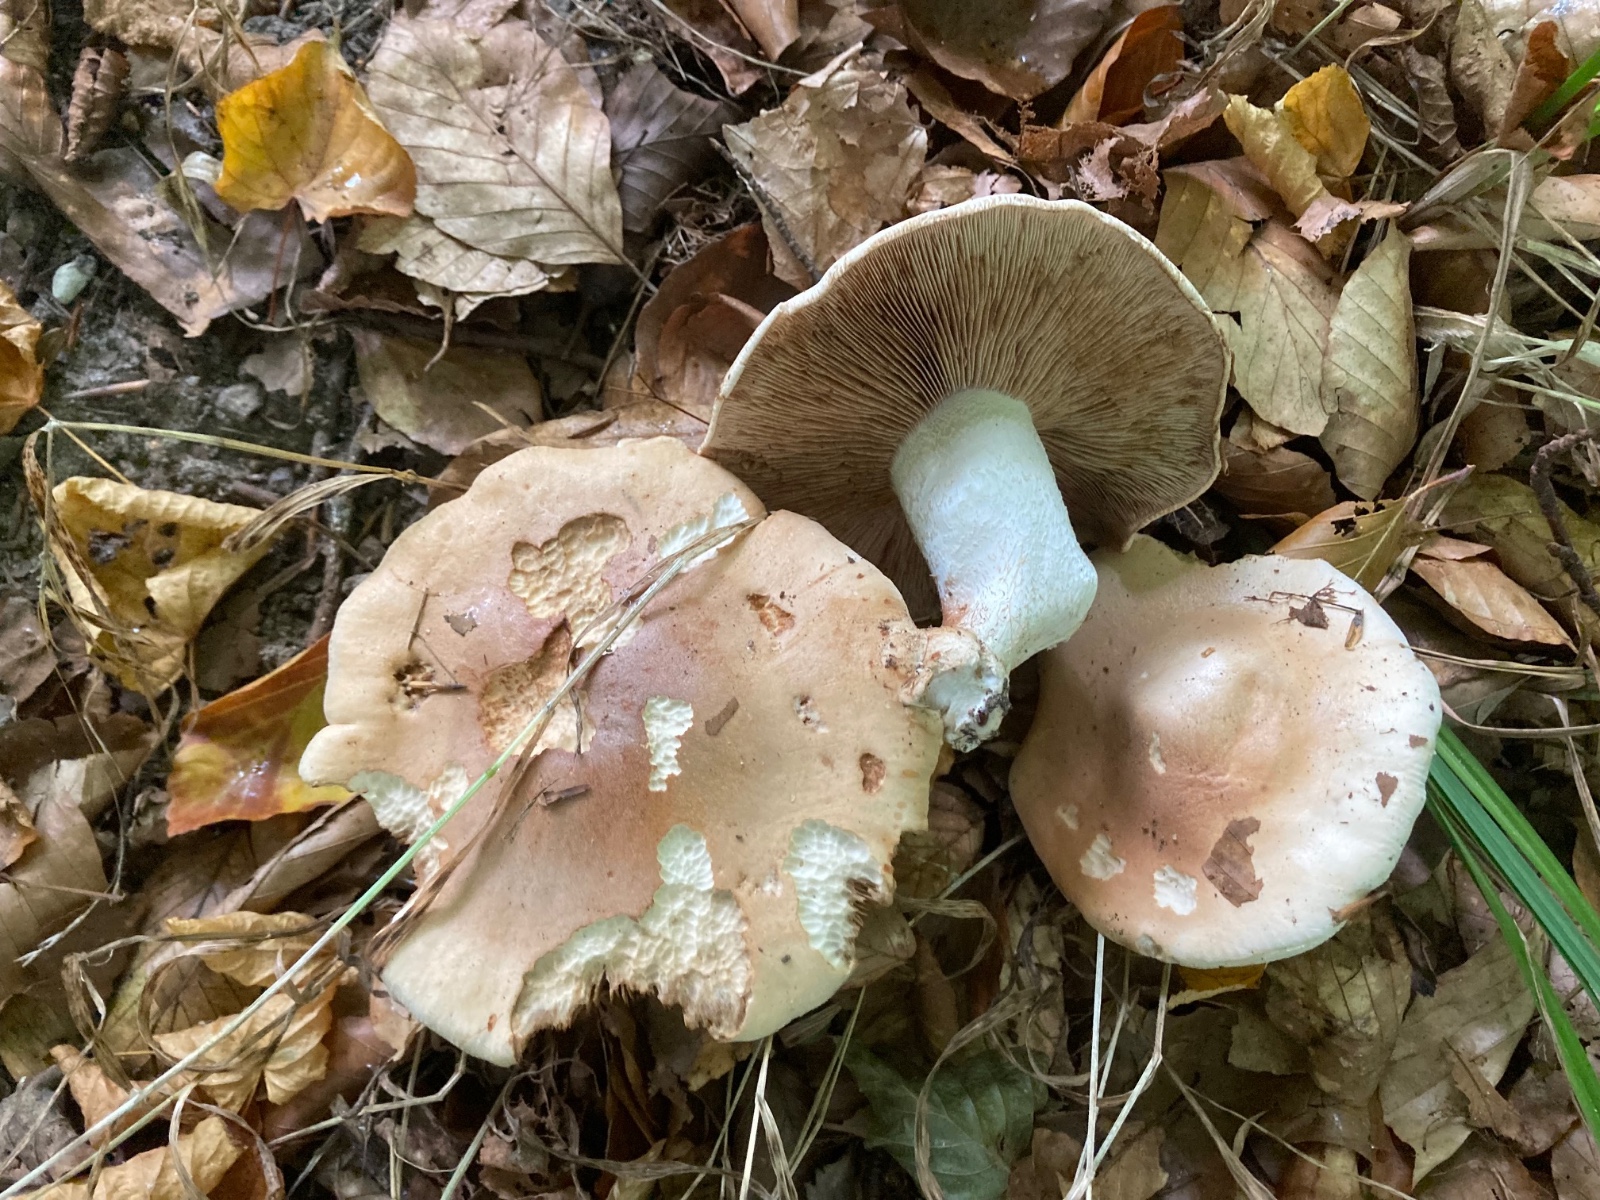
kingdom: Fungi
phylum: Basidiomycota
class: Agaricomycetes
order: Agaricales
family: Hymenogastraceae
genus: Hebeloma
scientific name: Hebeloma sinapizans
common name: ræddike-tåreblad
